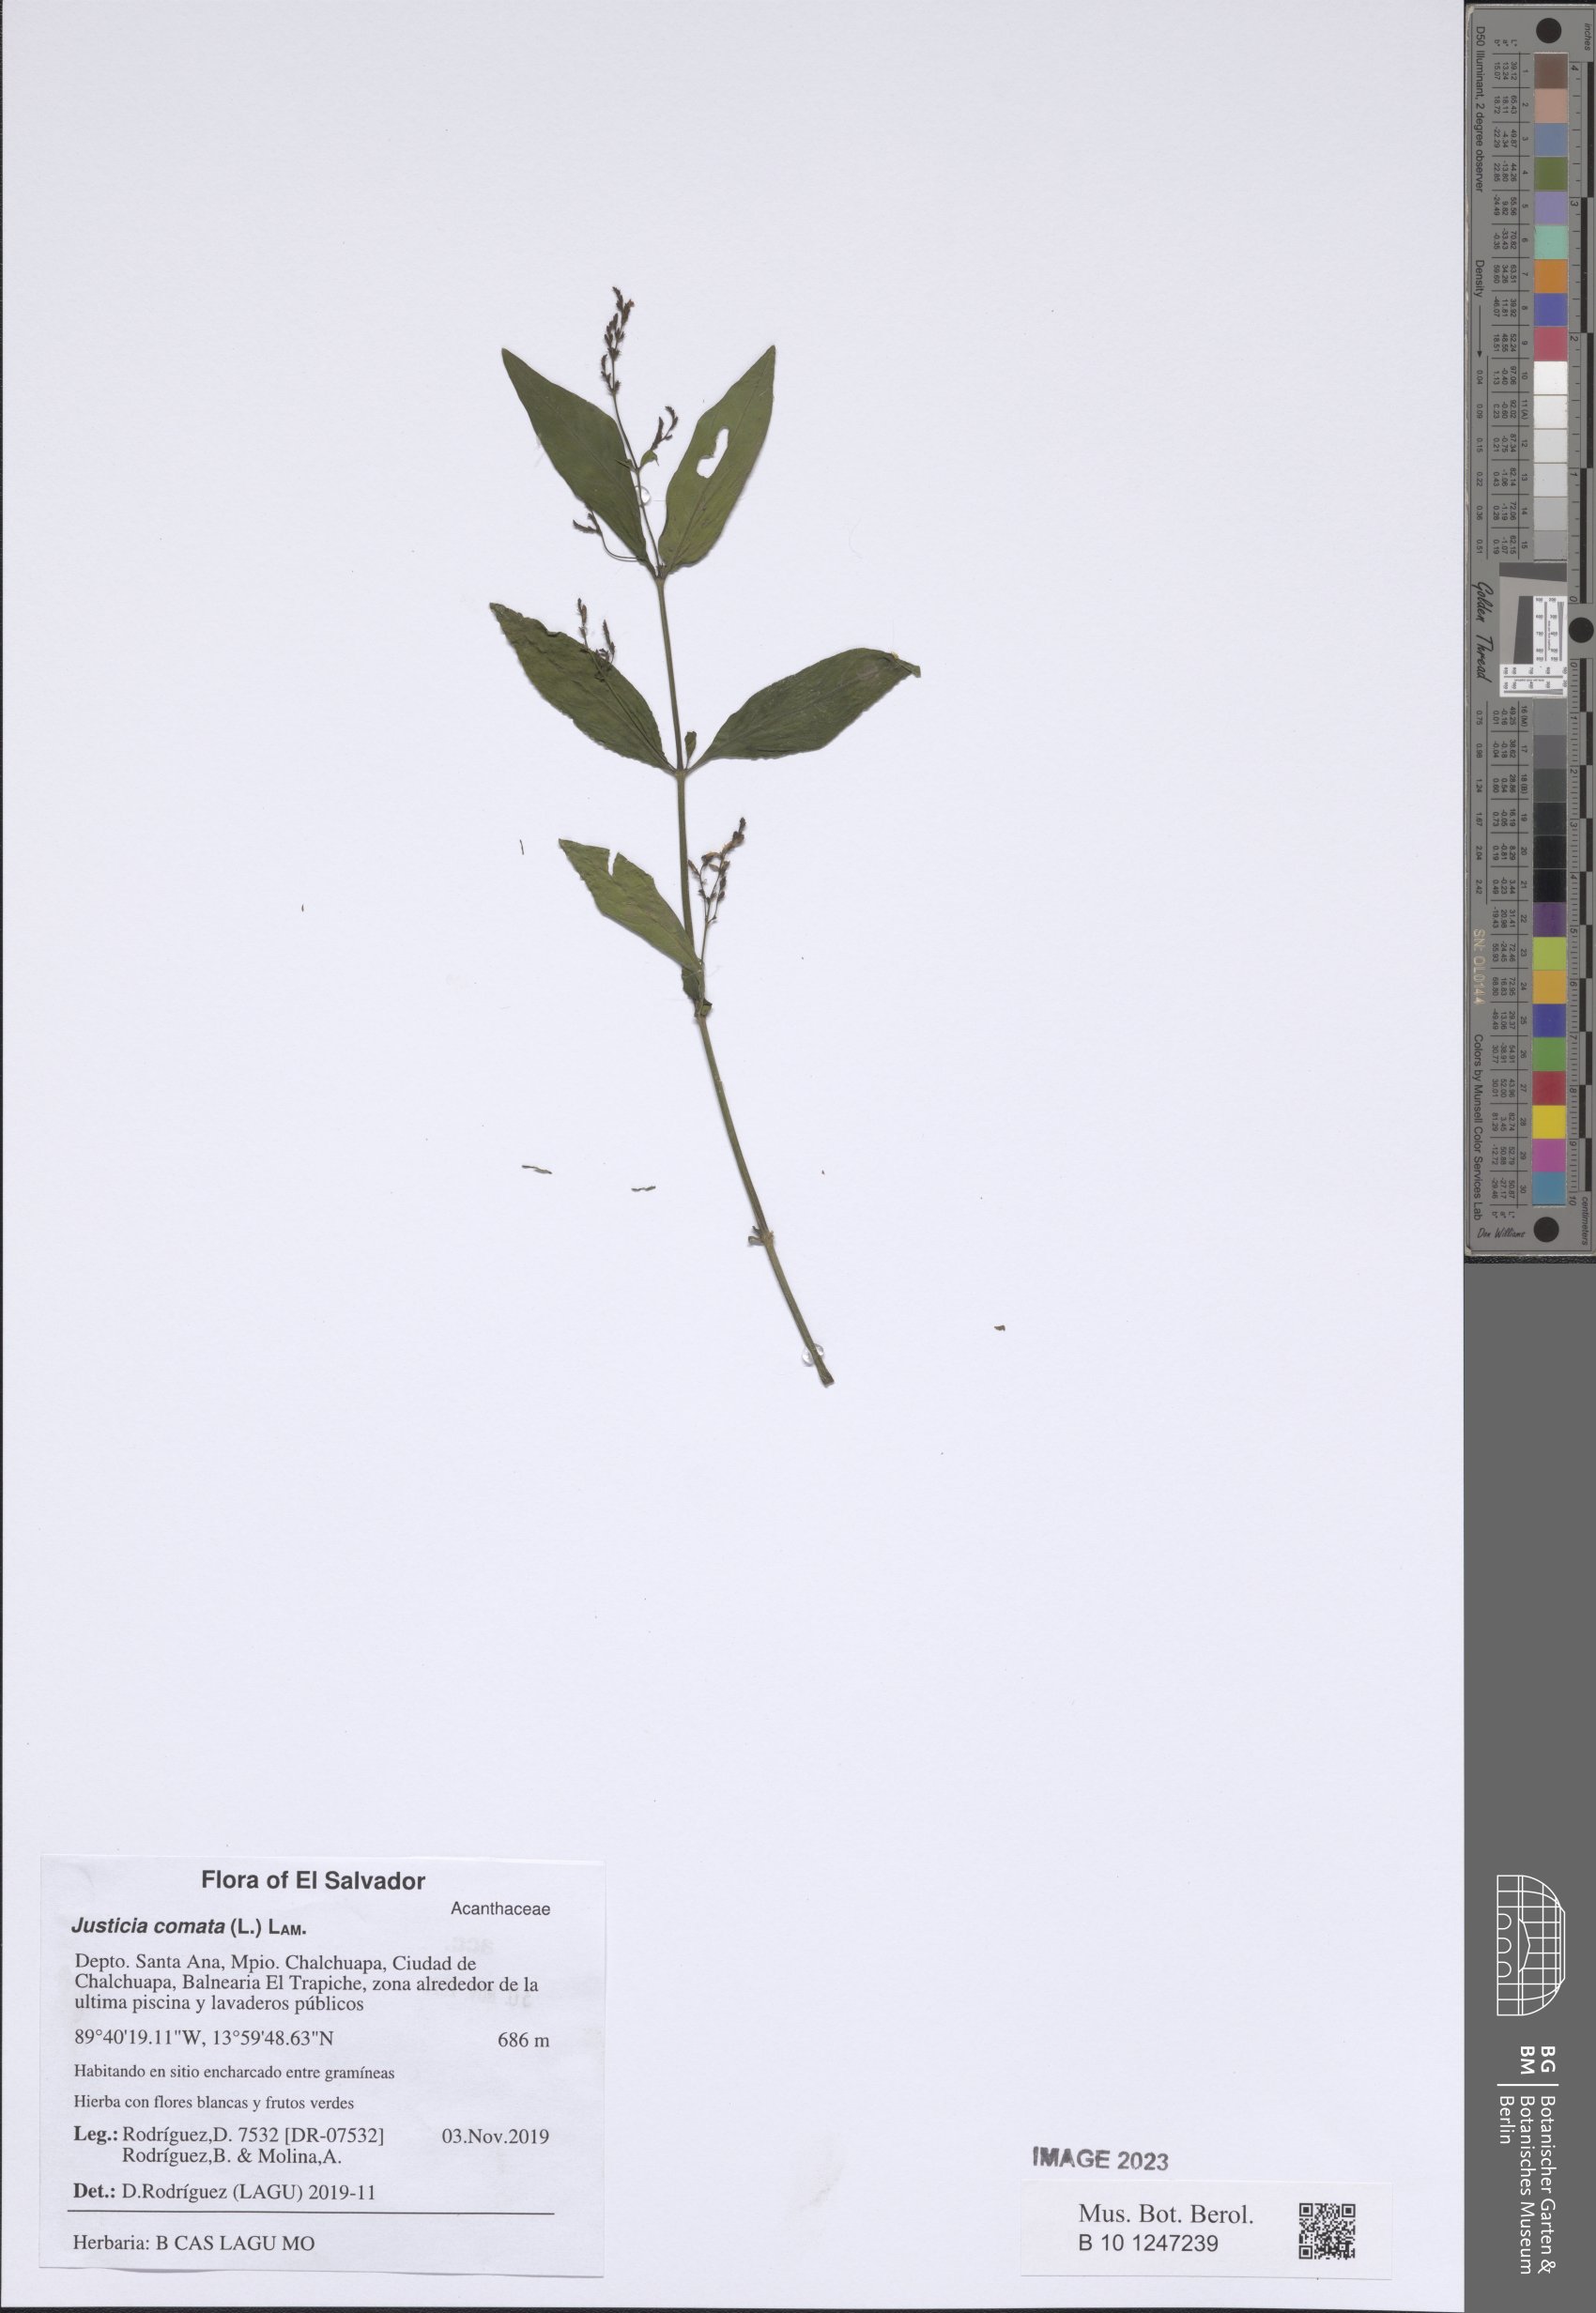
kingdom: Plantae
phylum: Tracheophyta
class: Magnoliopsida
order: Lamiales
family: Acanthaceae
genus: Dianthera
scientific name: Dianthera comata
